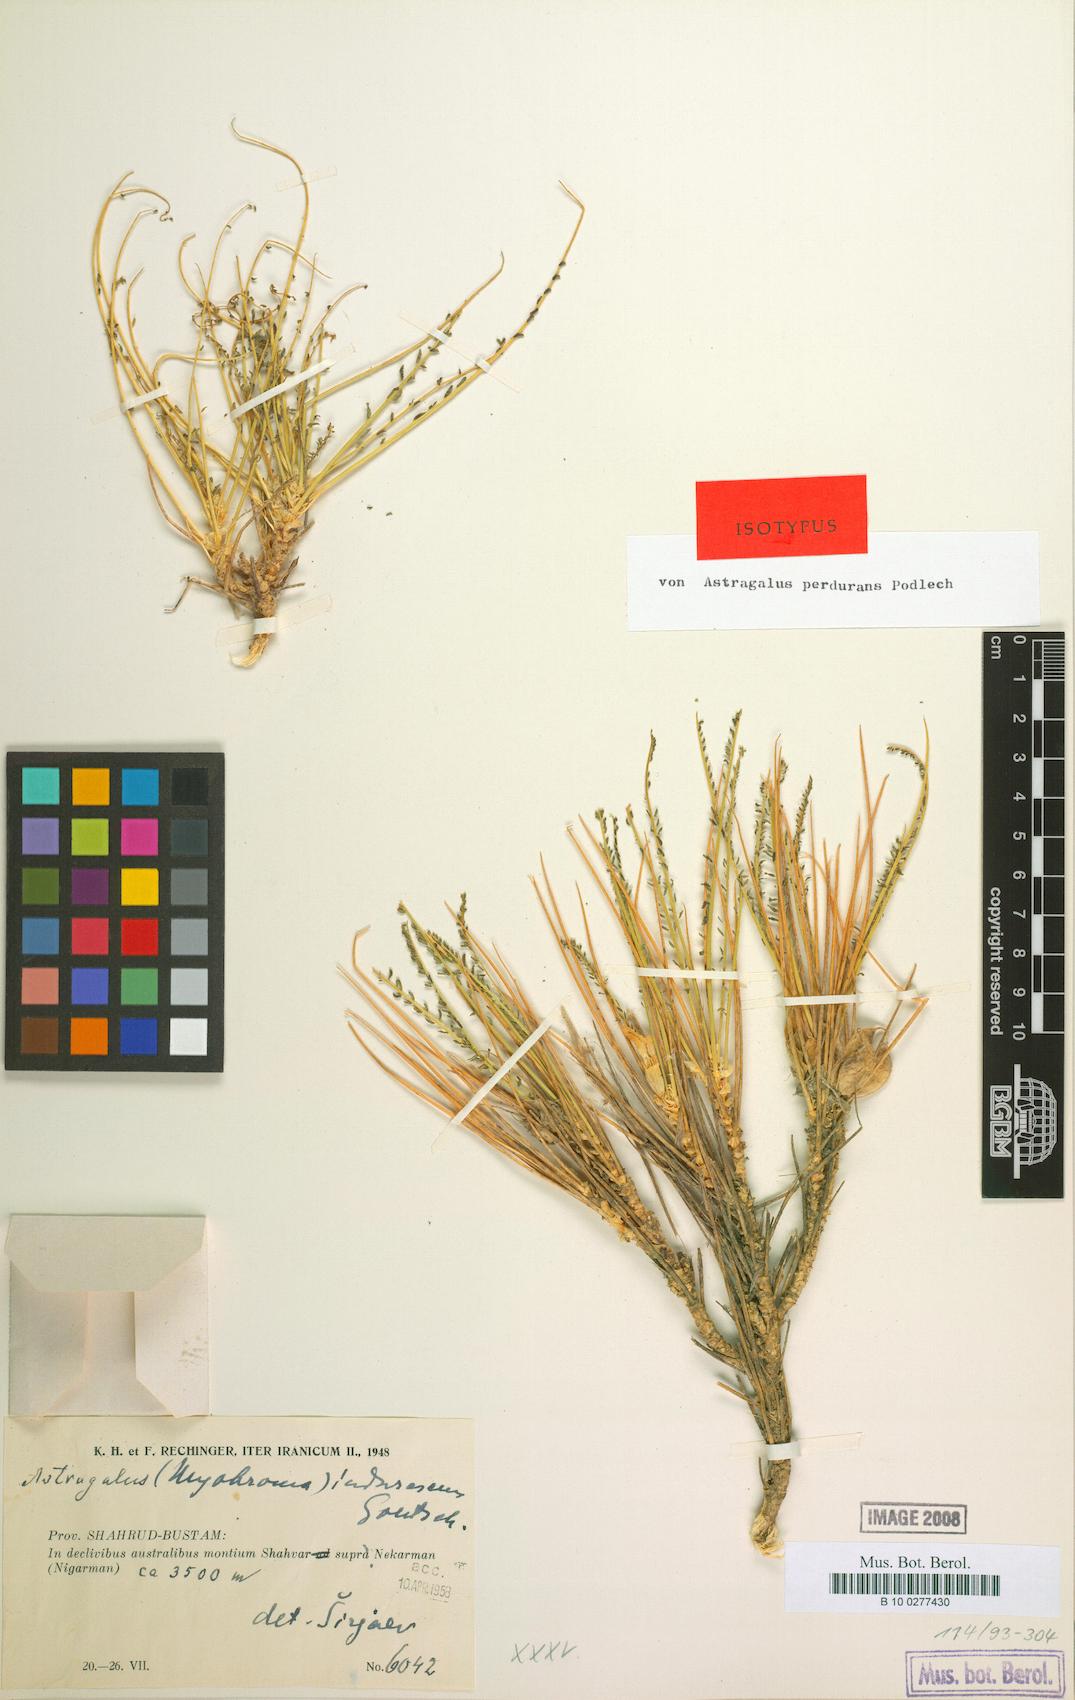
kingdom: Plantae
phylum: Tracheophyta
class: Magnoliopsida
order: Fabales
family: Fabaceae
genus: Astragalus
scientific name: Astragalus perdurans
